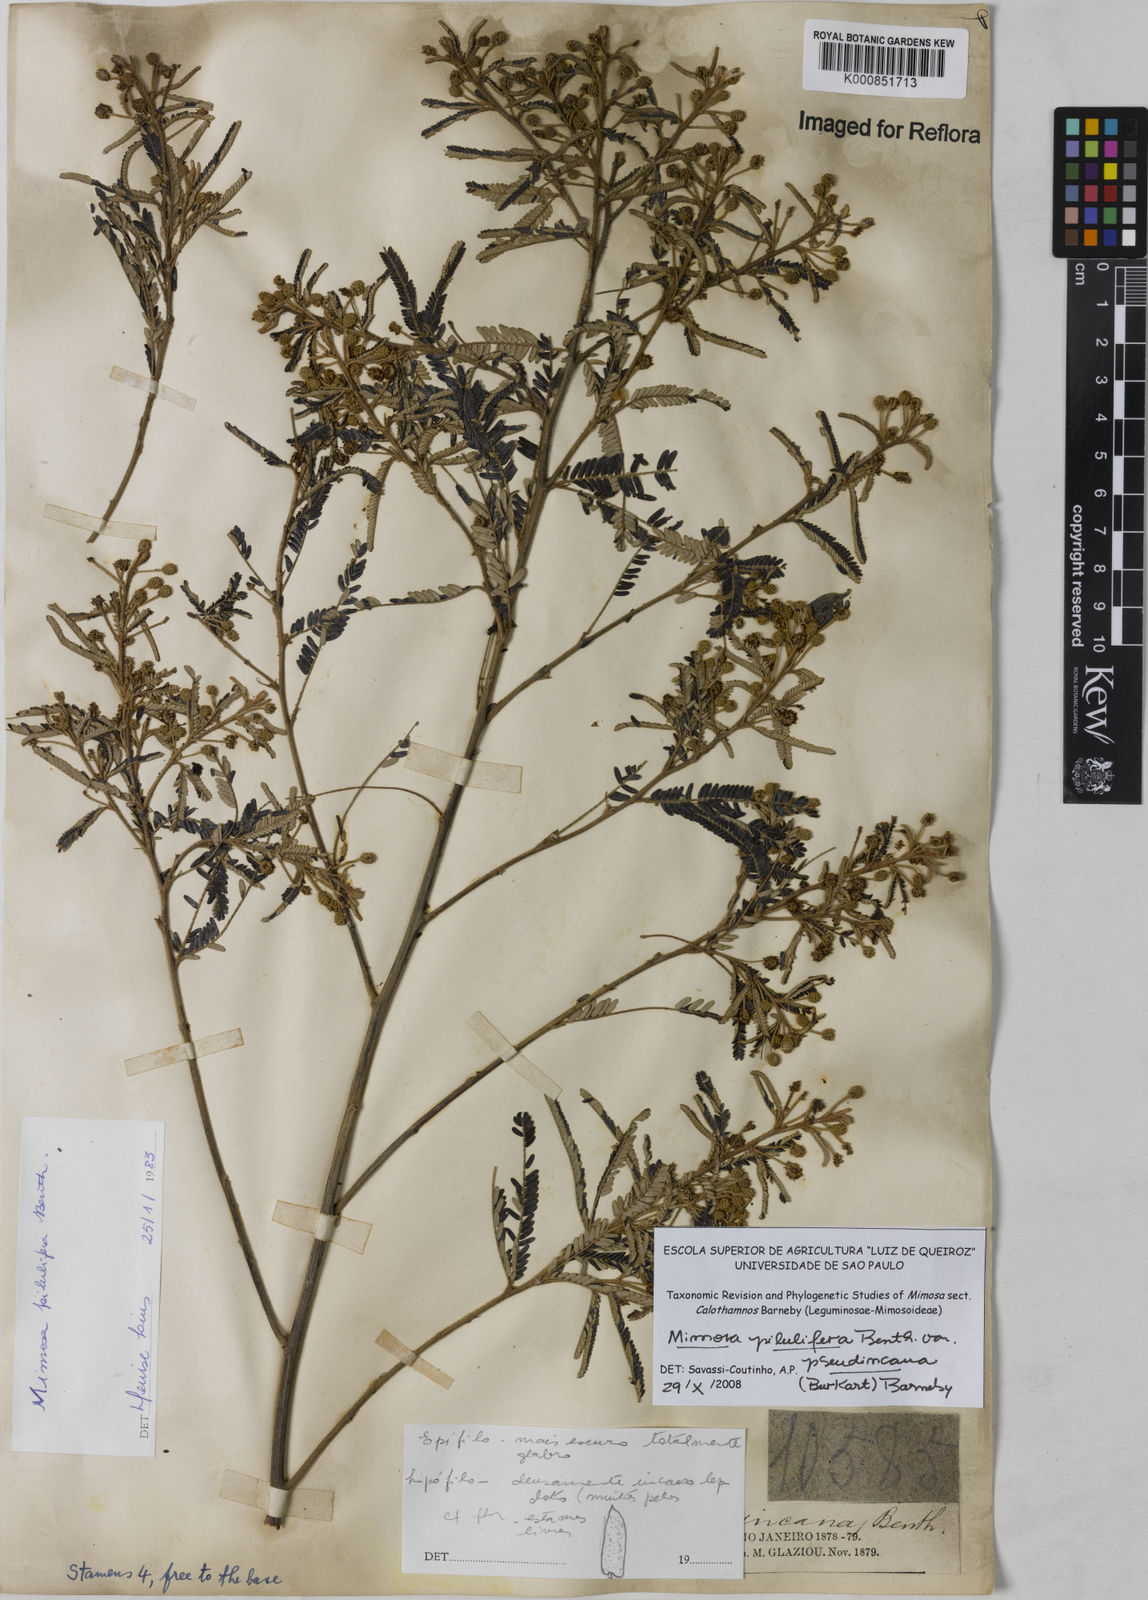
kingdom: Plantae
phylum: Tracheophyta
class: Magnoliopsida
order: Fabales
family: Fabaceae
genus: Mimosa
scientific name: Mimosa pilulifera
